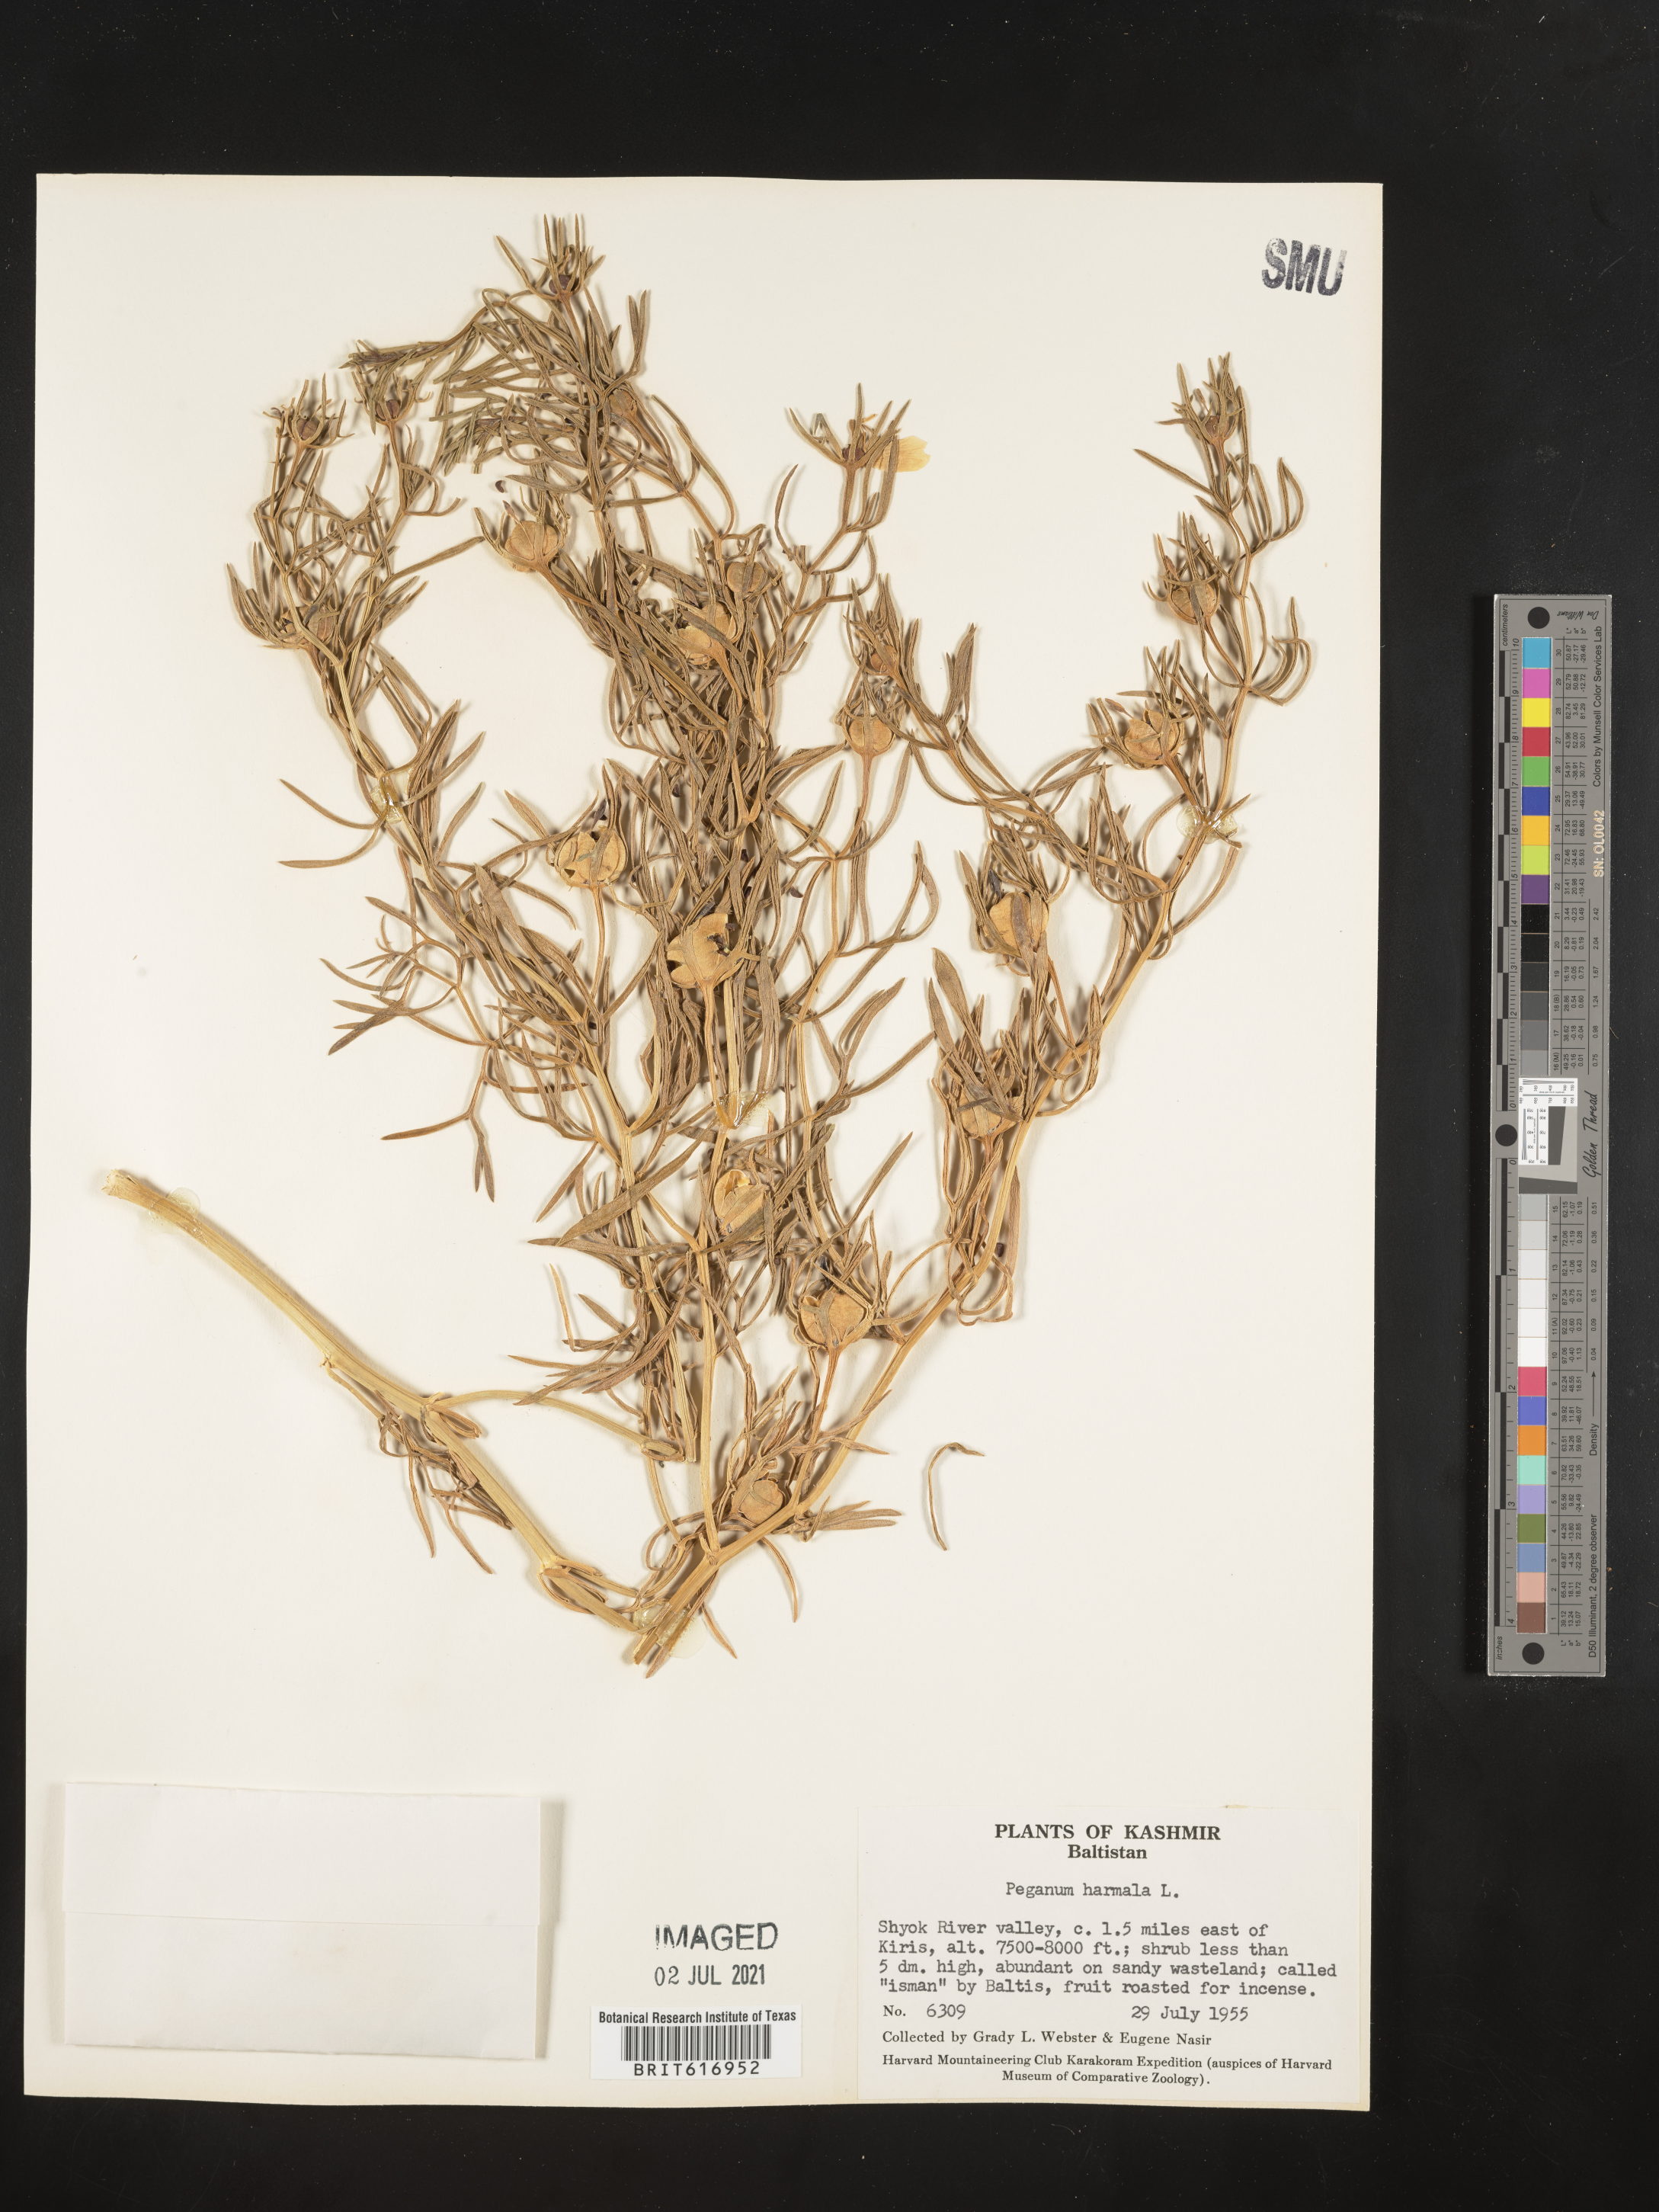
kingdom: Plantae
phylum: Tracheophyta
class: Magnoliopsida
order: Sapindales
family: Tetradiclidaceae
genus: Peganum
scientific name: Peganum harmala
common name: Harmal peganum
